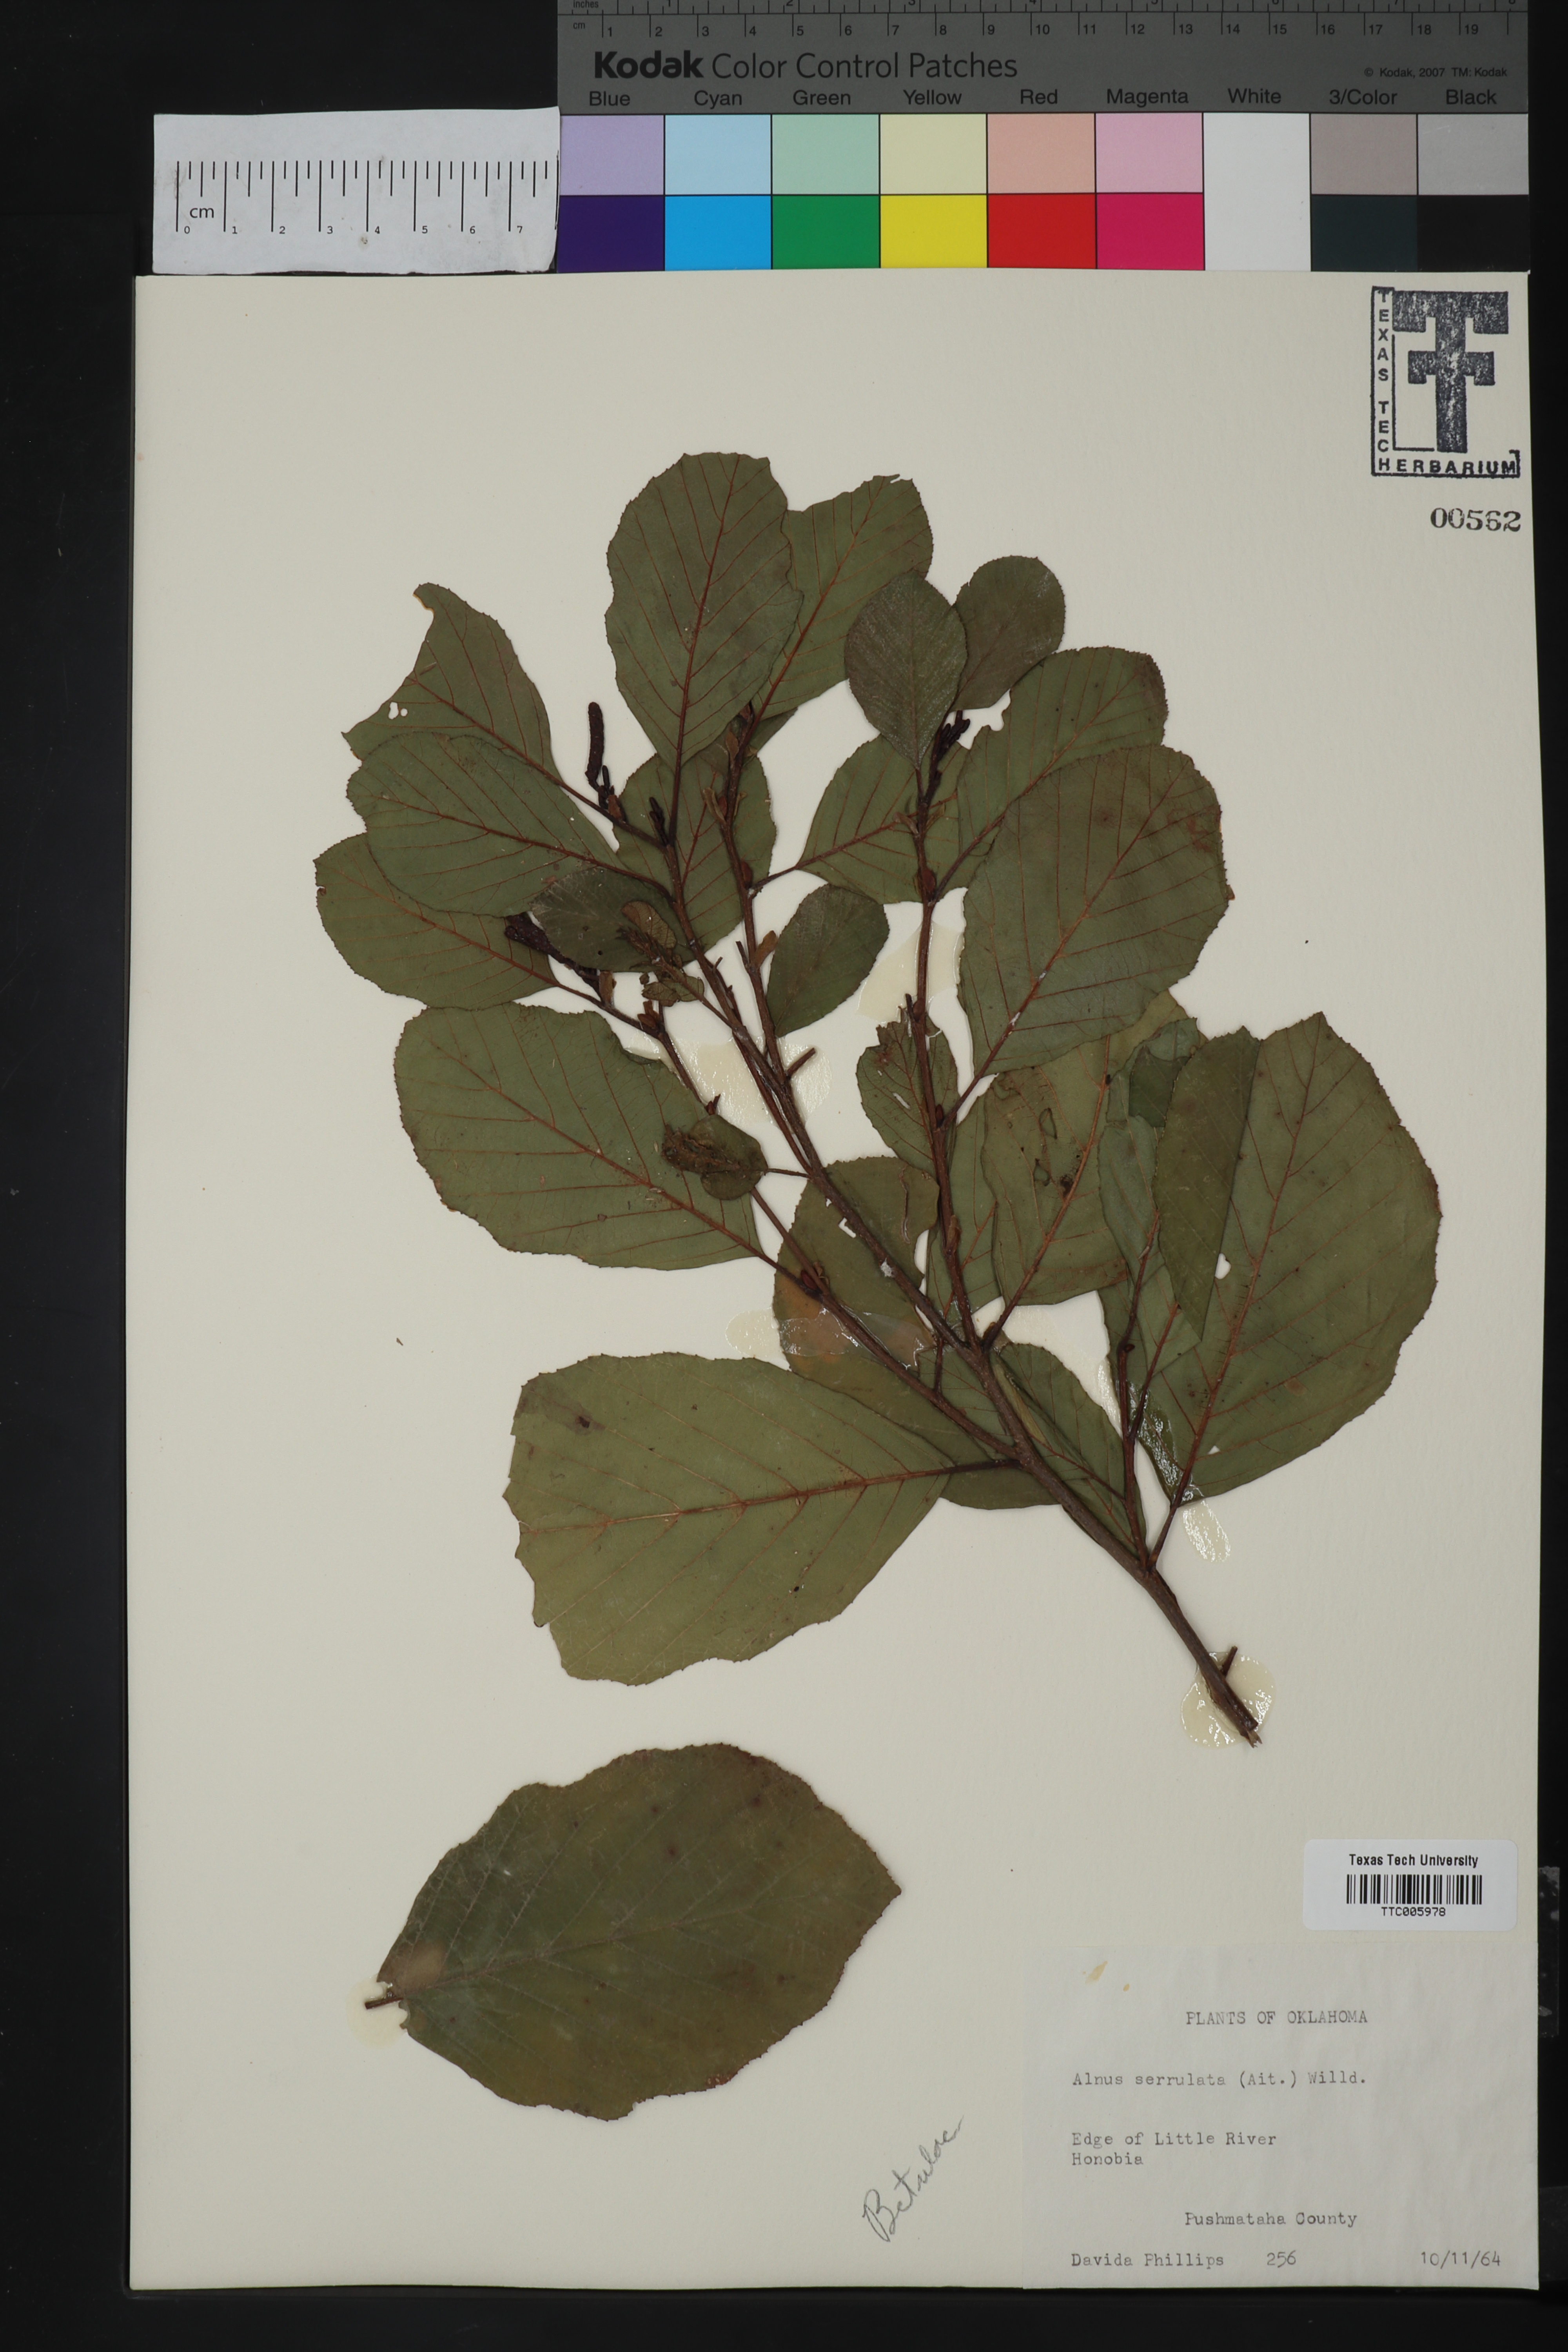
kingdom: Plantae
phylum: Tracheophyta
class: Magnoliopsida
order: Fagales
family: Betulaceae
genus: Alnus
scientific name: Alnus serrulata
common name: Hazel alder
